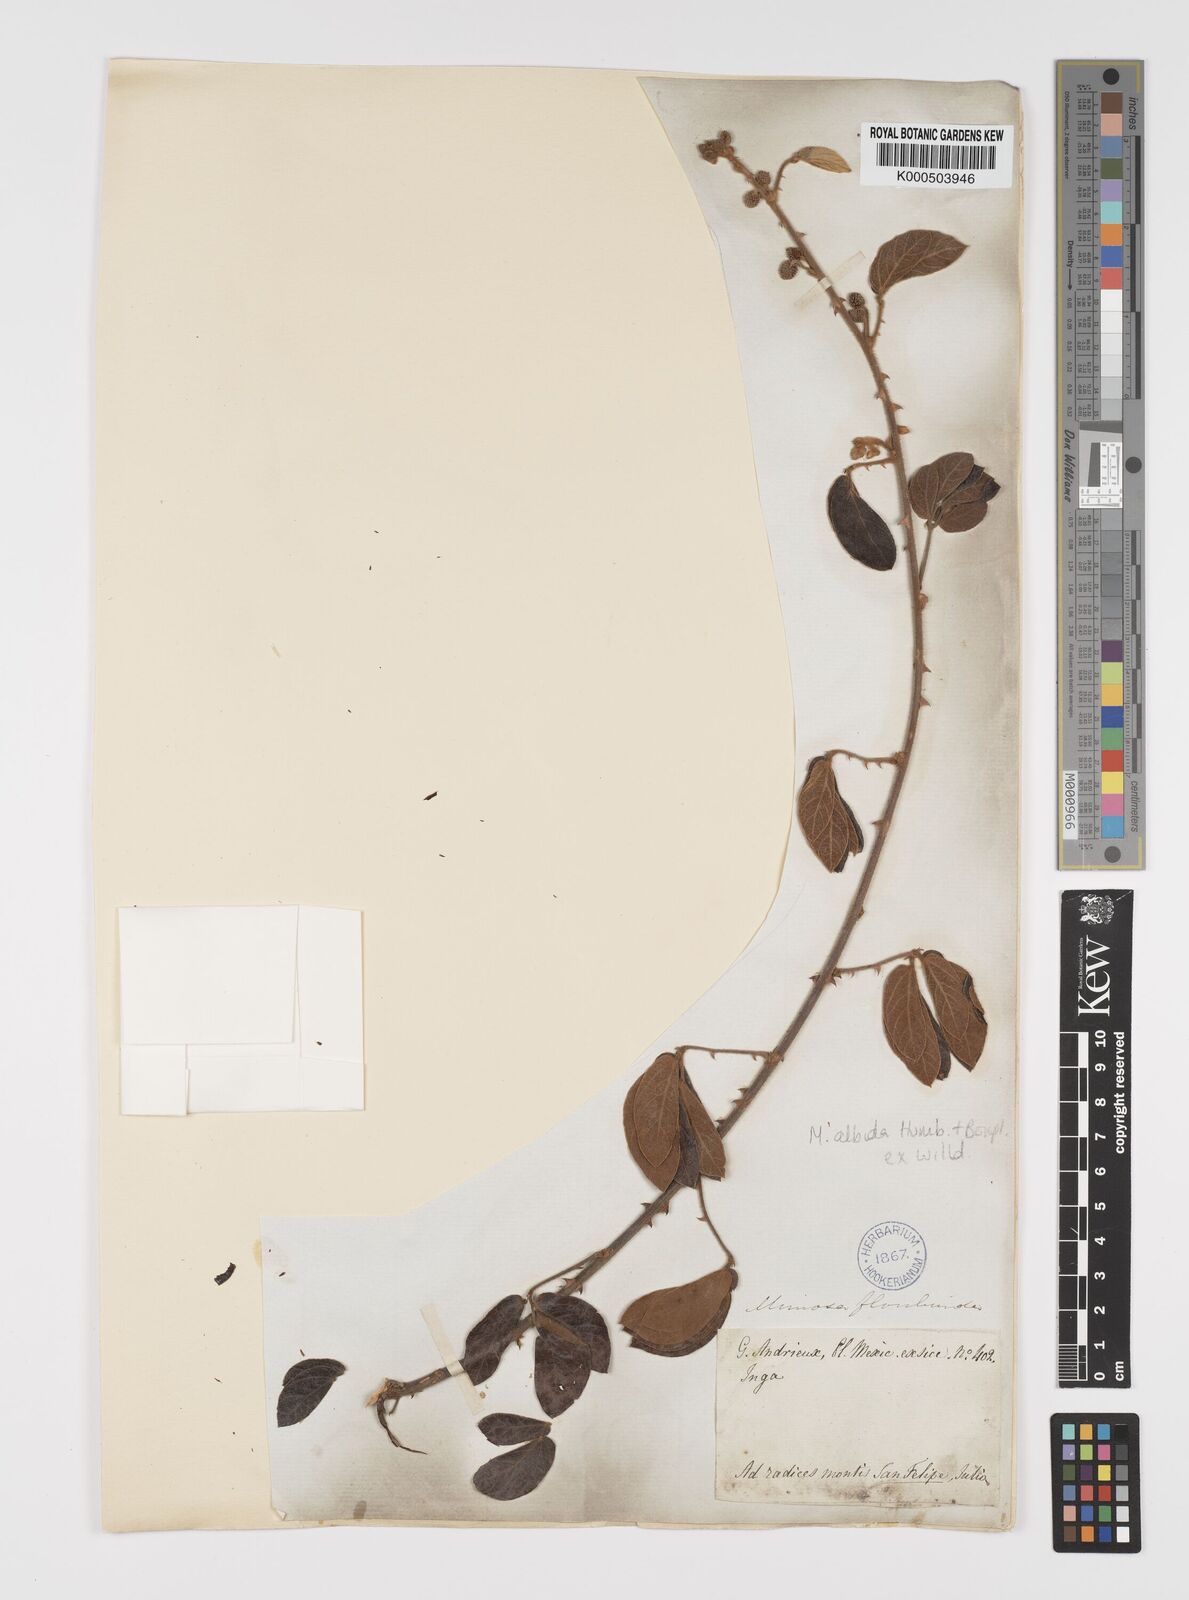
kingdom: Plantae
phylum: Tracheophyta
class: Magnoliopsida
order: Fabales
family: Fabaceae
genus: Mimosa
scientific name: Mimosa albida
